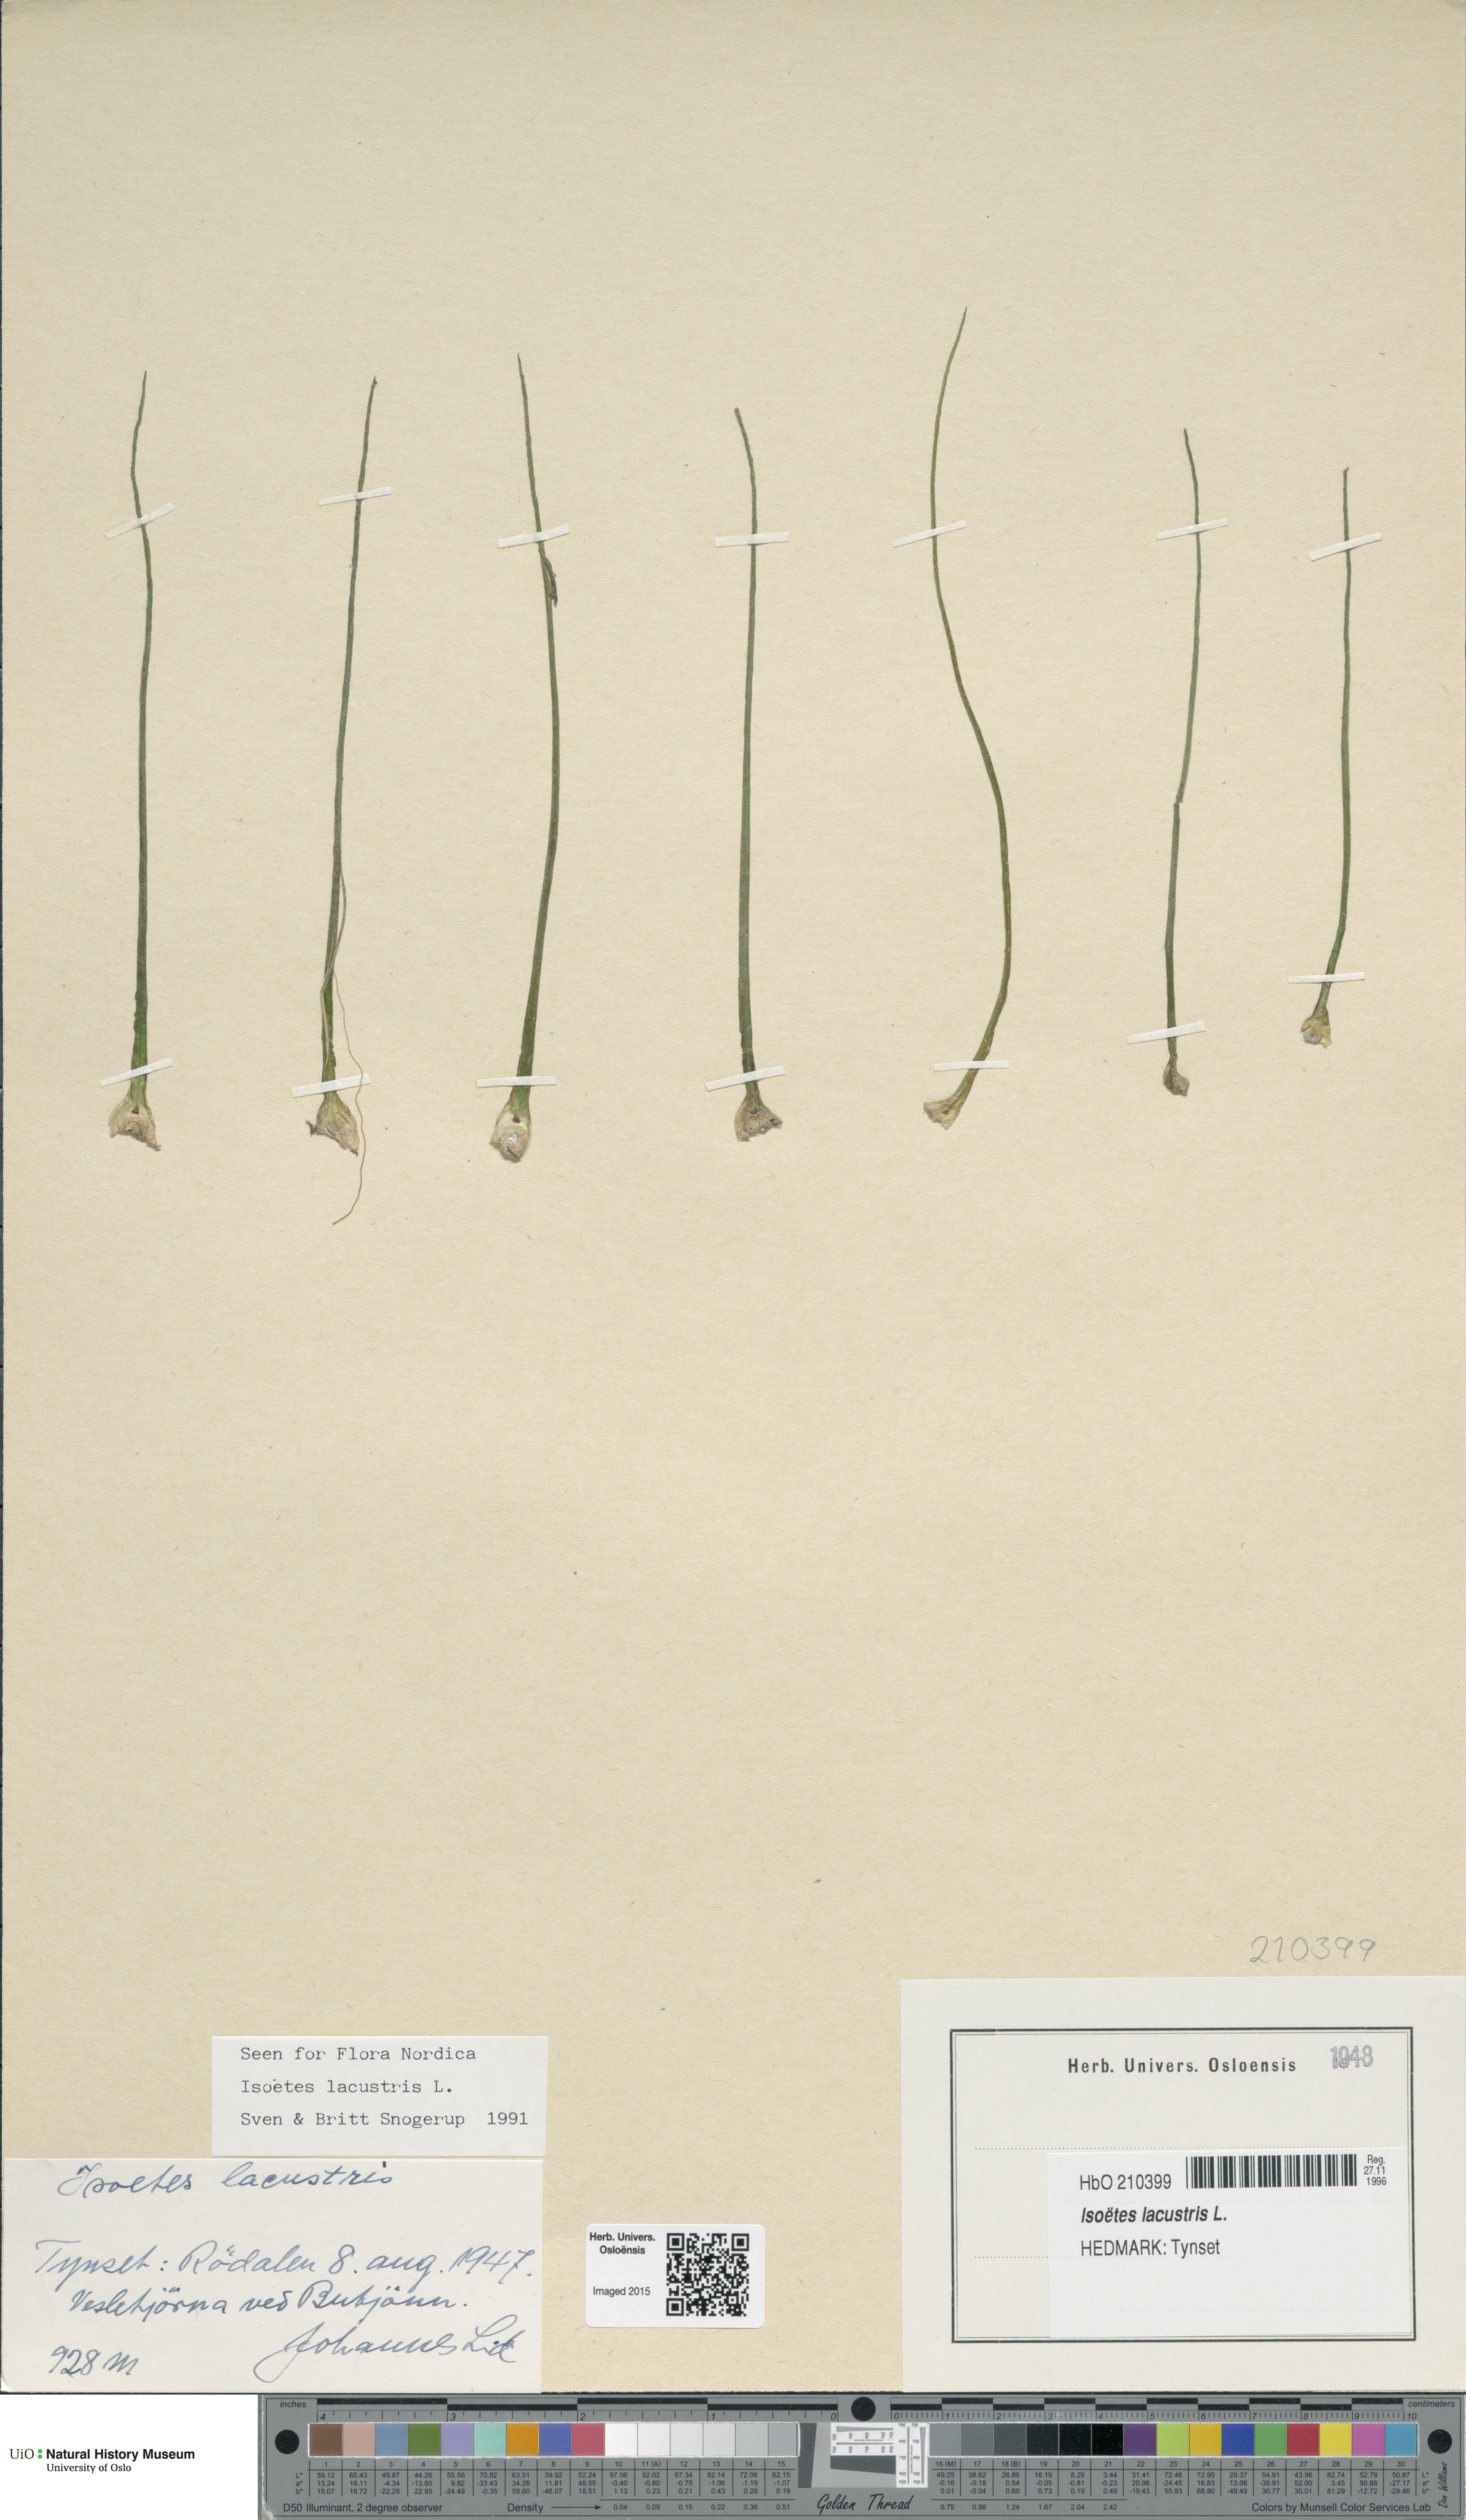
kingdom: Plantae
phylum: Tracheophyta
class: Lycopodiopsida
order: Isoetales
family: Isoetaceae
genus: Isoetes
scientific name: Isoetes lacustris
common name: Common quillwort
